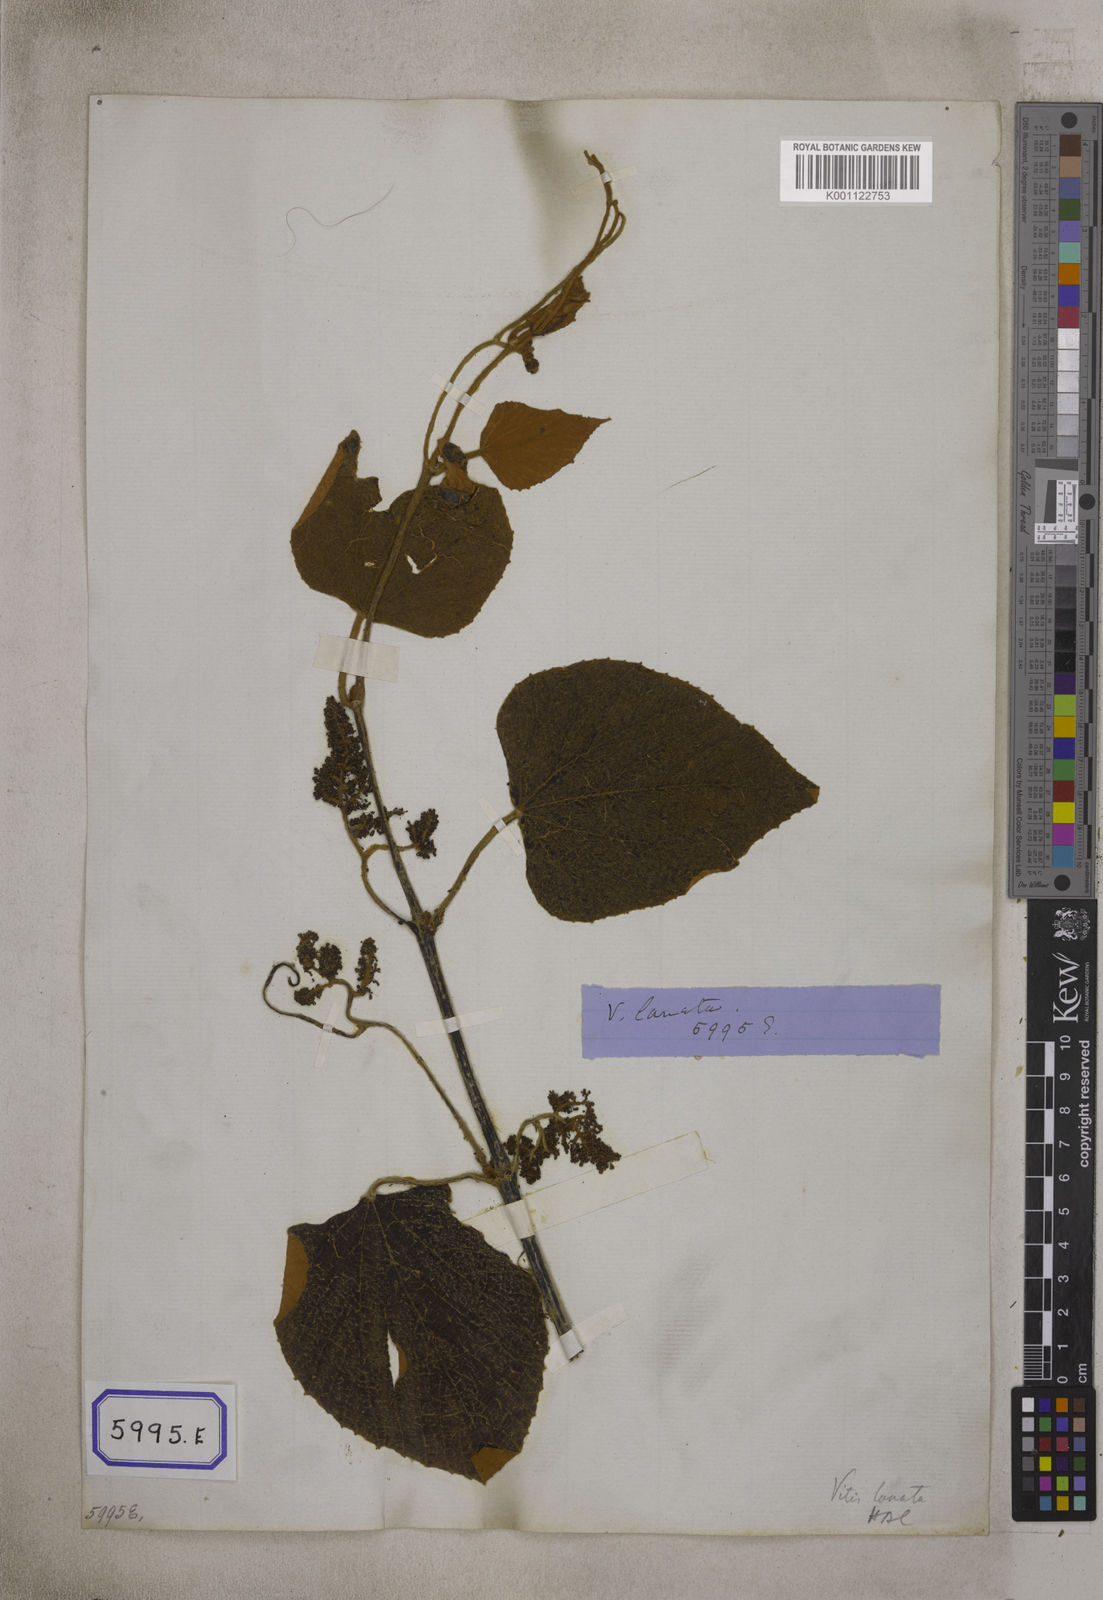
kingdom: Plantae
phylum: Tracheophyta
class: Magnoliopsida
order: Vitales
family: Vitaceae
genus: Vitis
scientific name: Vitis
